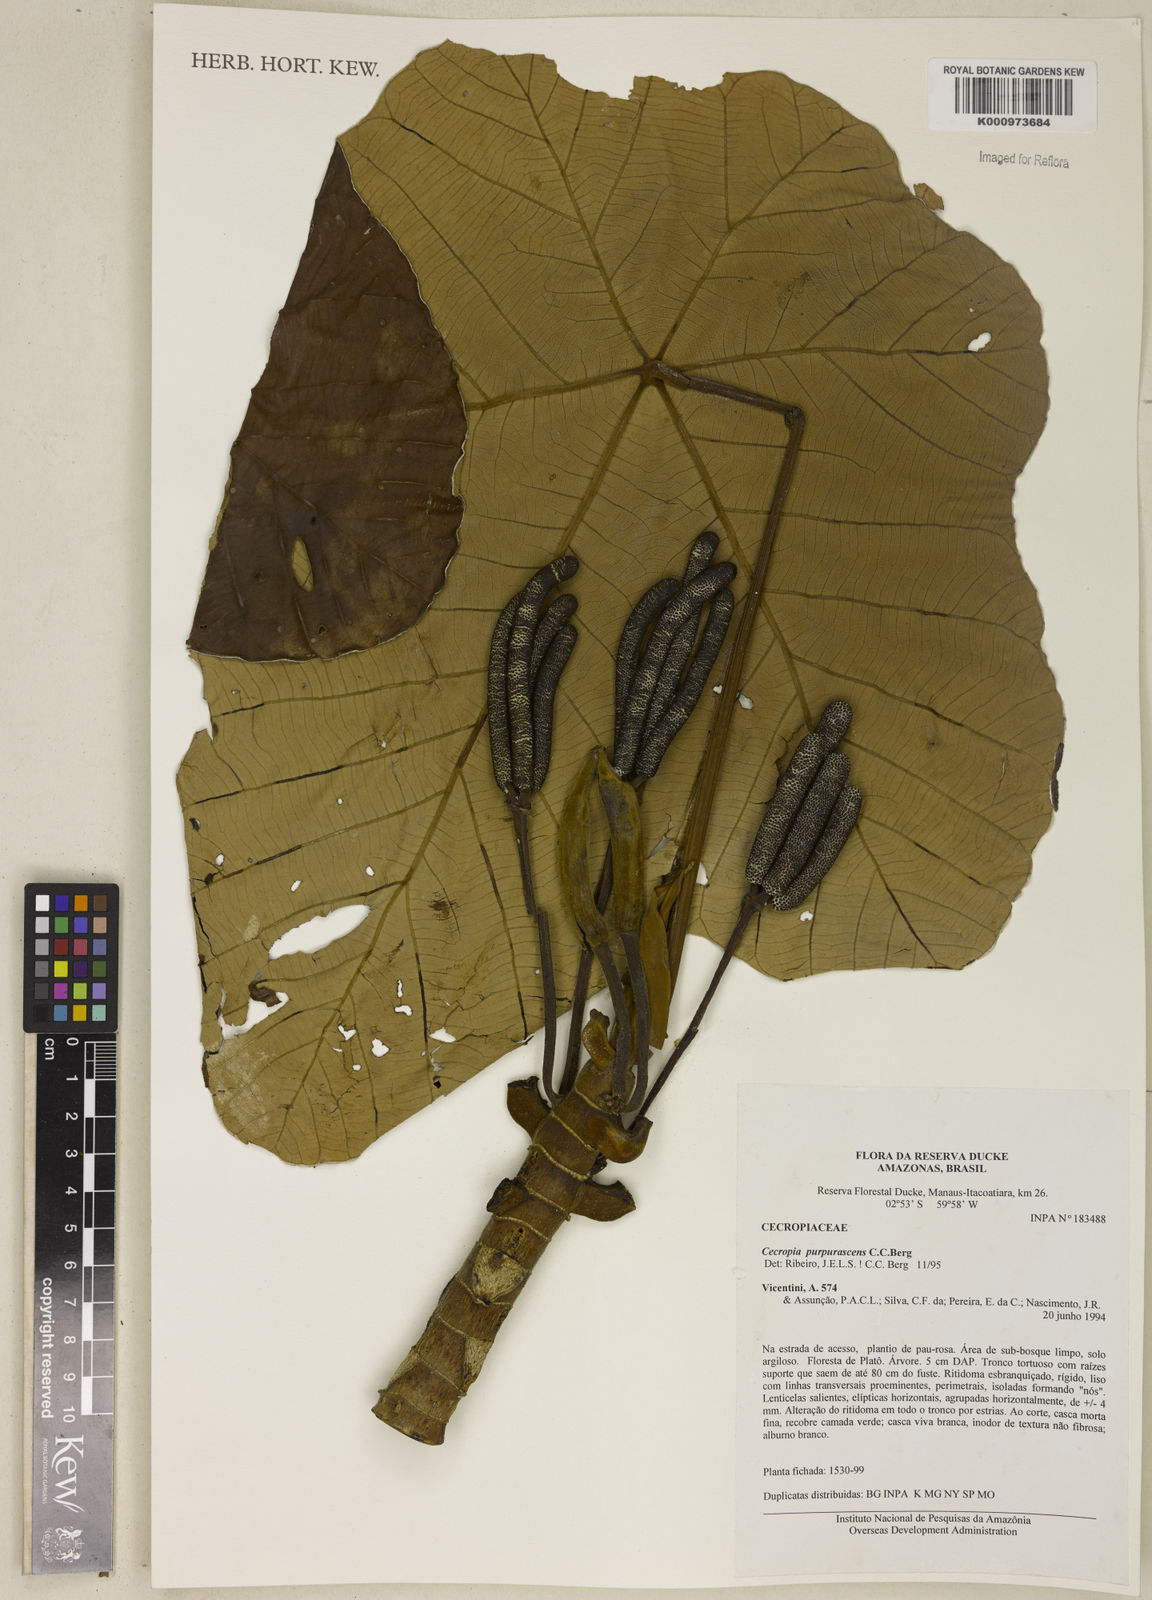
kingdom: Plantae
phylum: Tracheophyta
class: Magnoliopsida
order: Rosales
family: Urticaceae
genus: Cecropia
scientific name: Cecropia purpurascens
